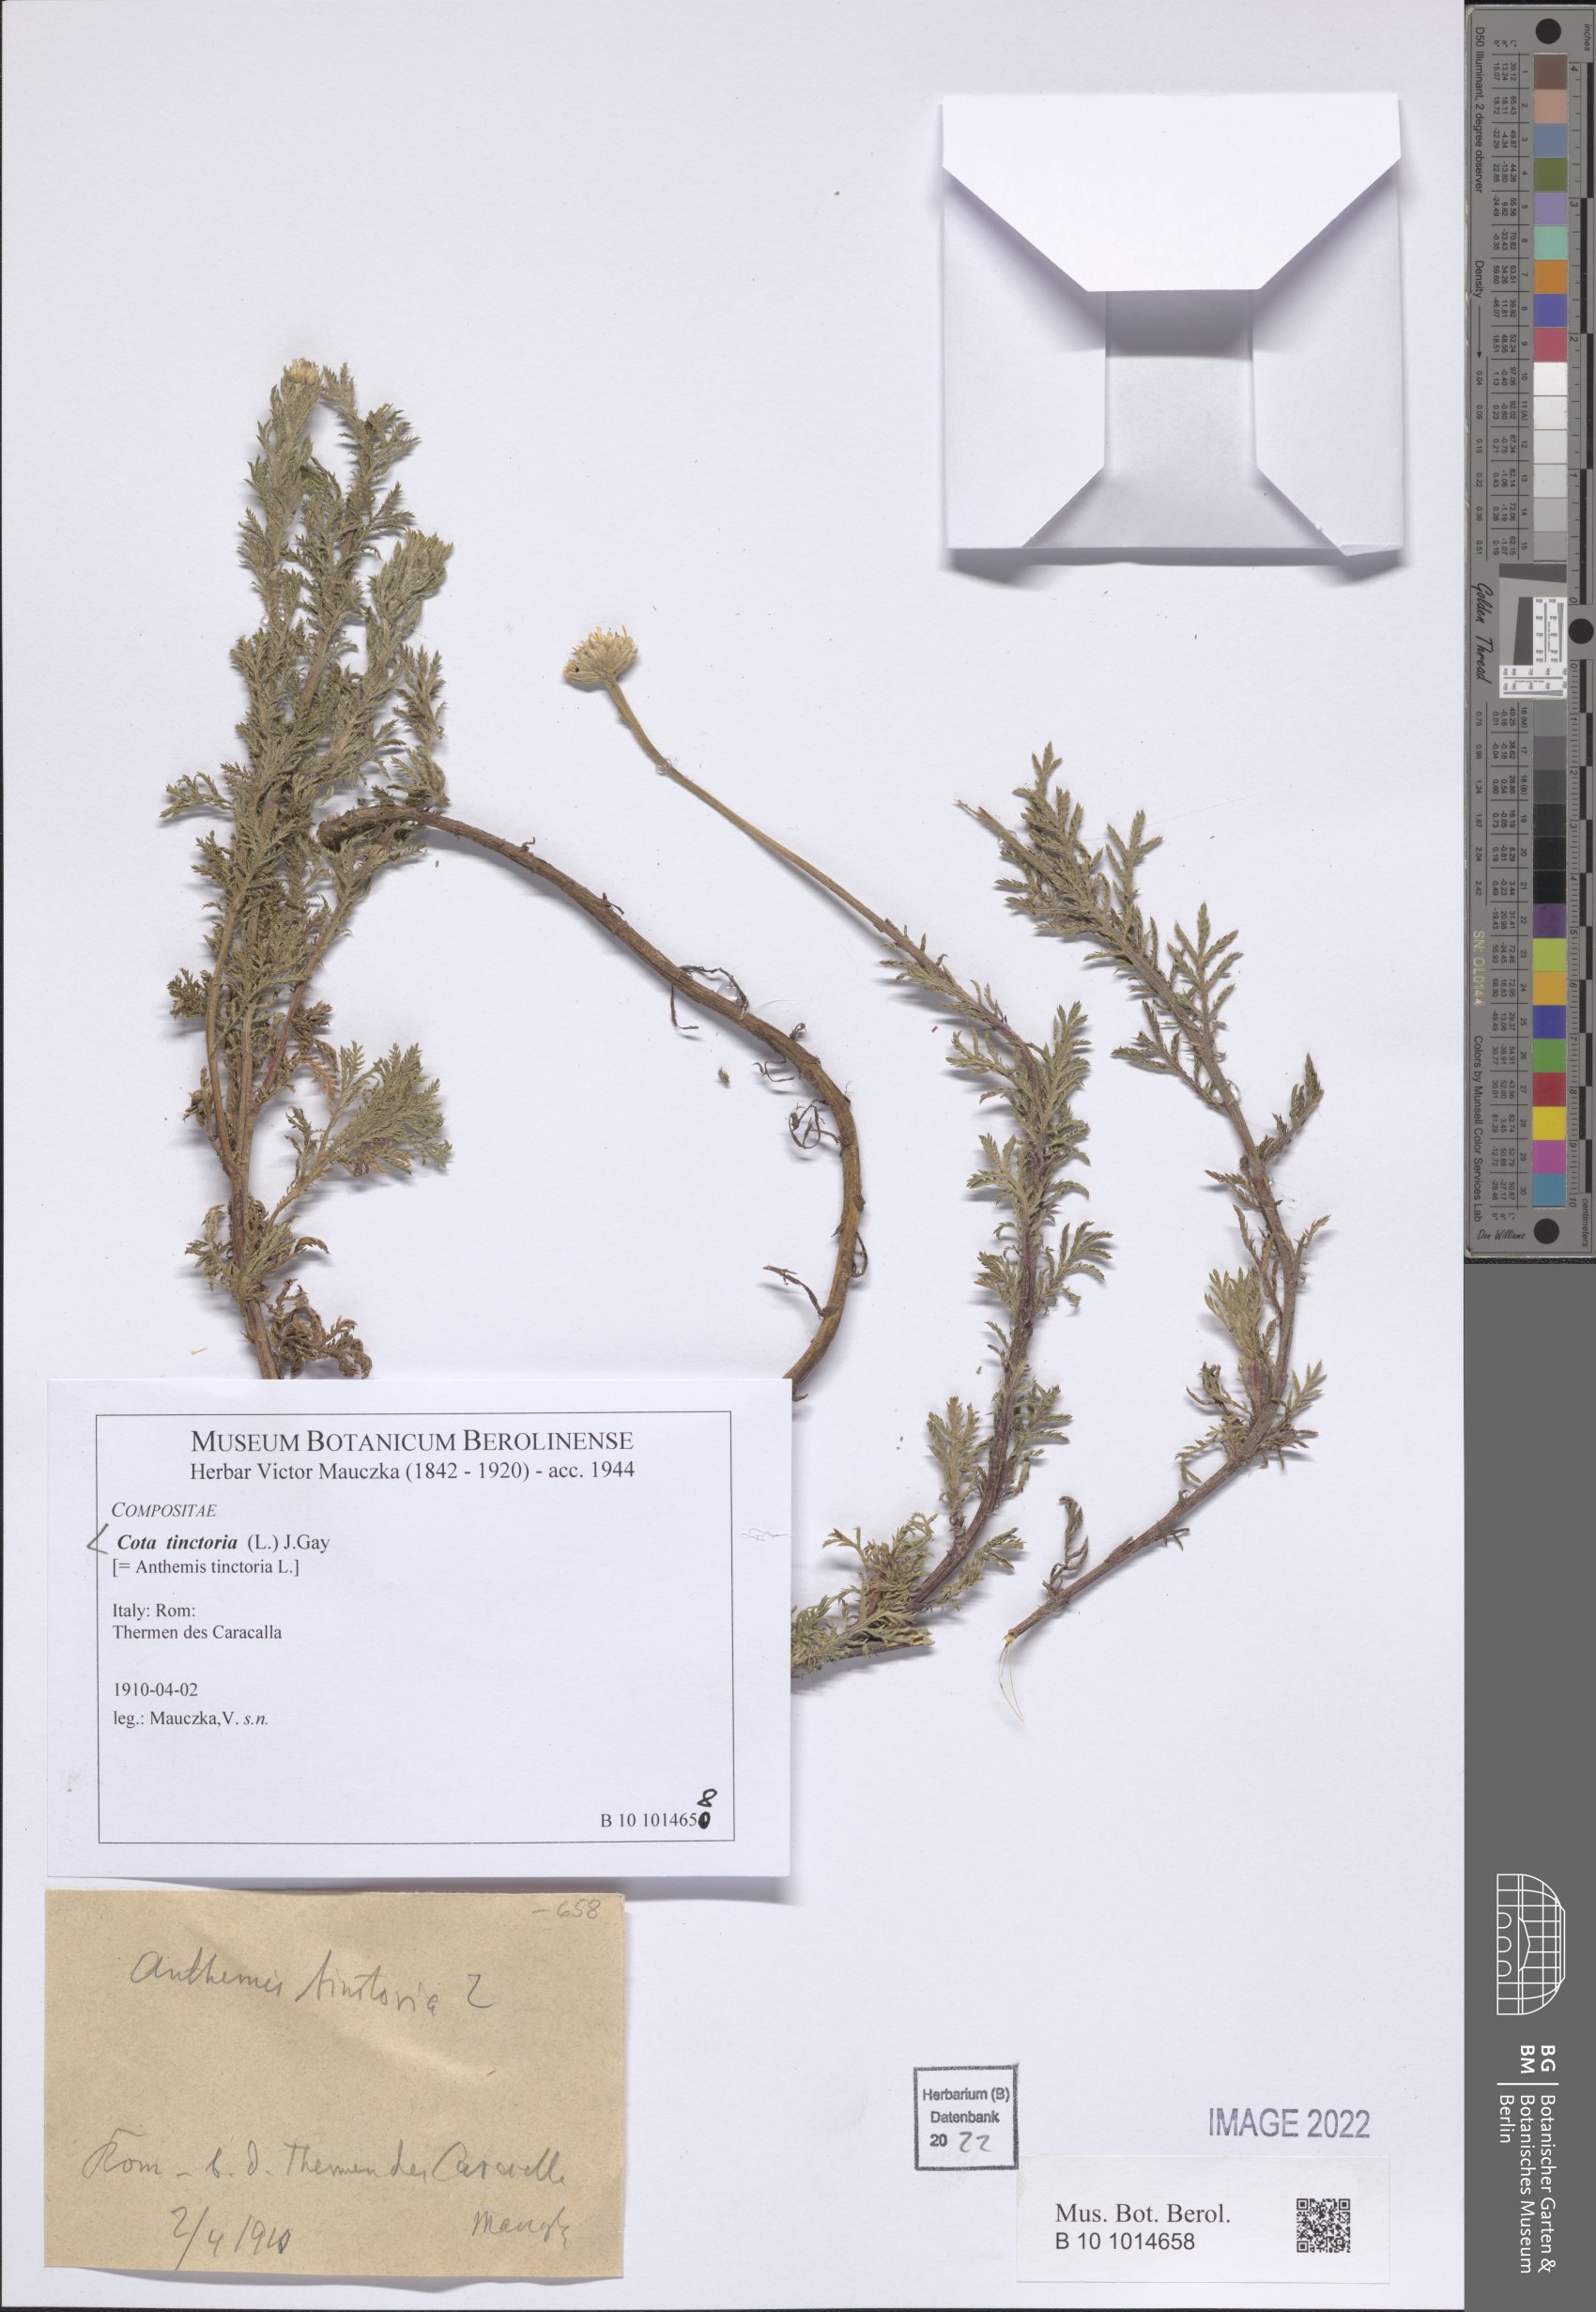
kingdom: Plantae
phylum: Tracheophyta
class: Magnoliopsida
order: Asterales
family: Asteraceae
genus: Cota
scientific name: Cota tinctoria
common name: Golden chamomile
